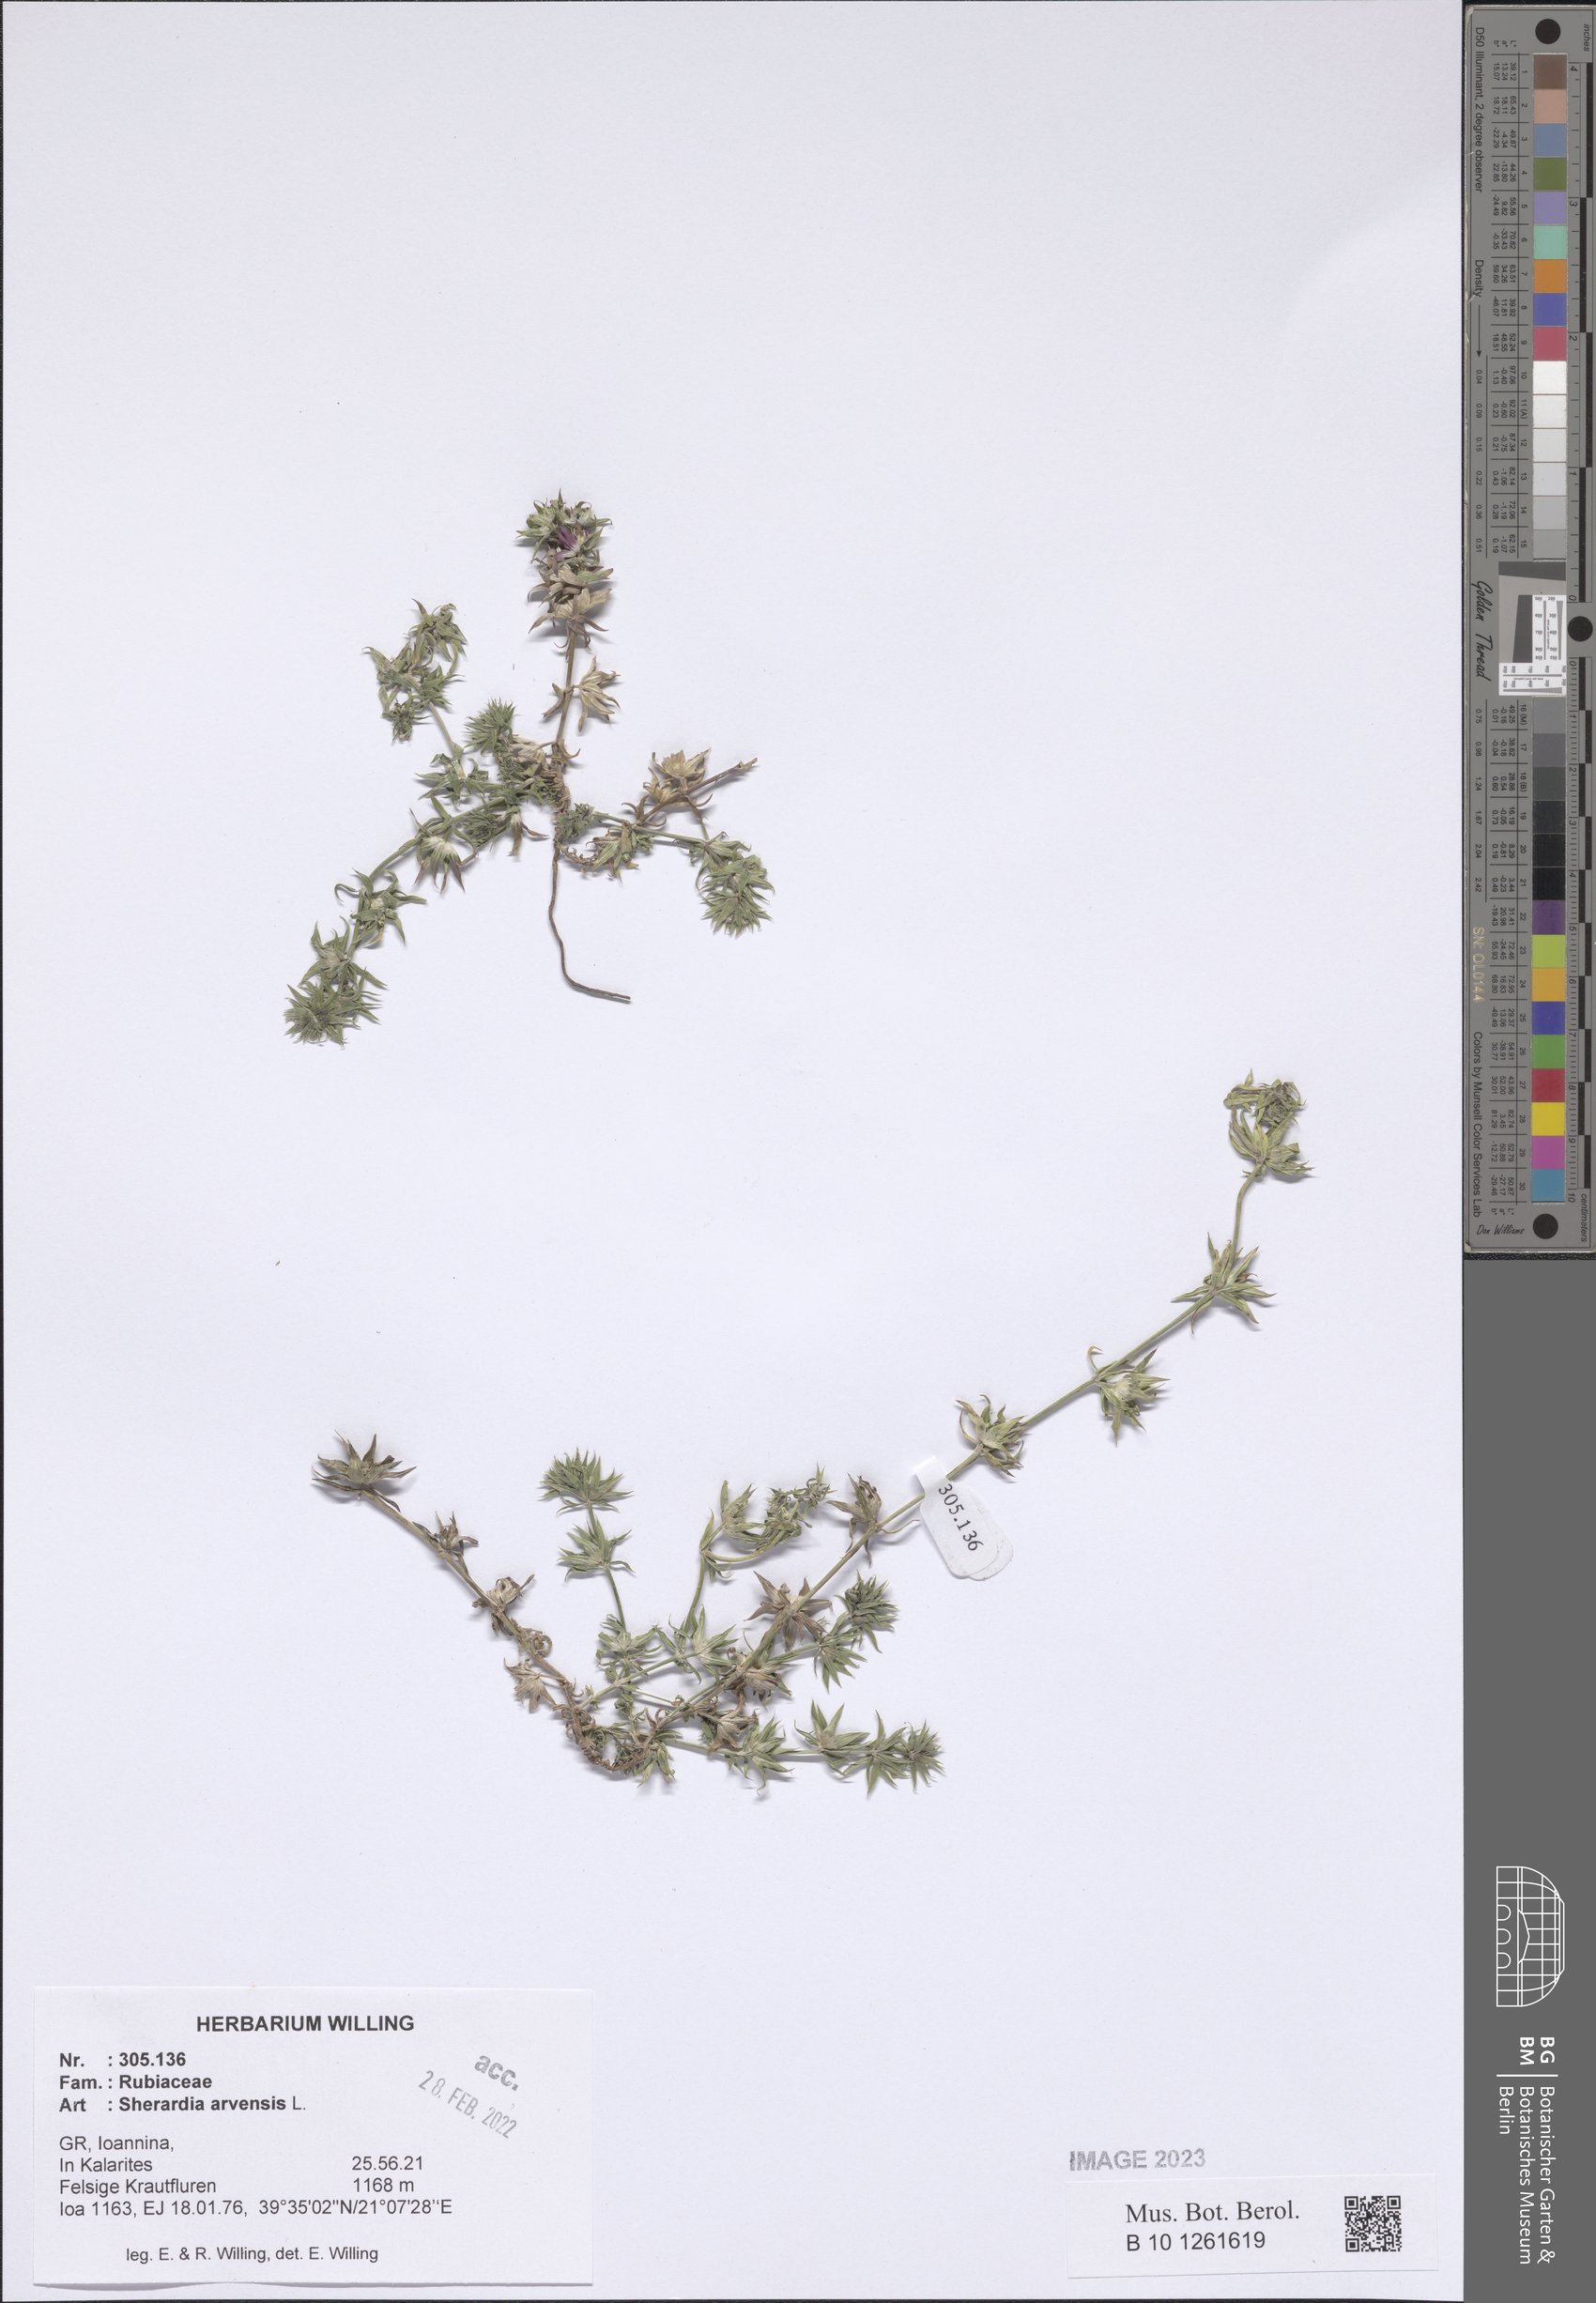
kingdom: Plantae
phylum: Tracheophyta
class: Magnoliopsida
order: Gentianales
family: Rubiaceae
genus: Sherardia
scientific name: Sherardia arvensis
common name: Field madder
